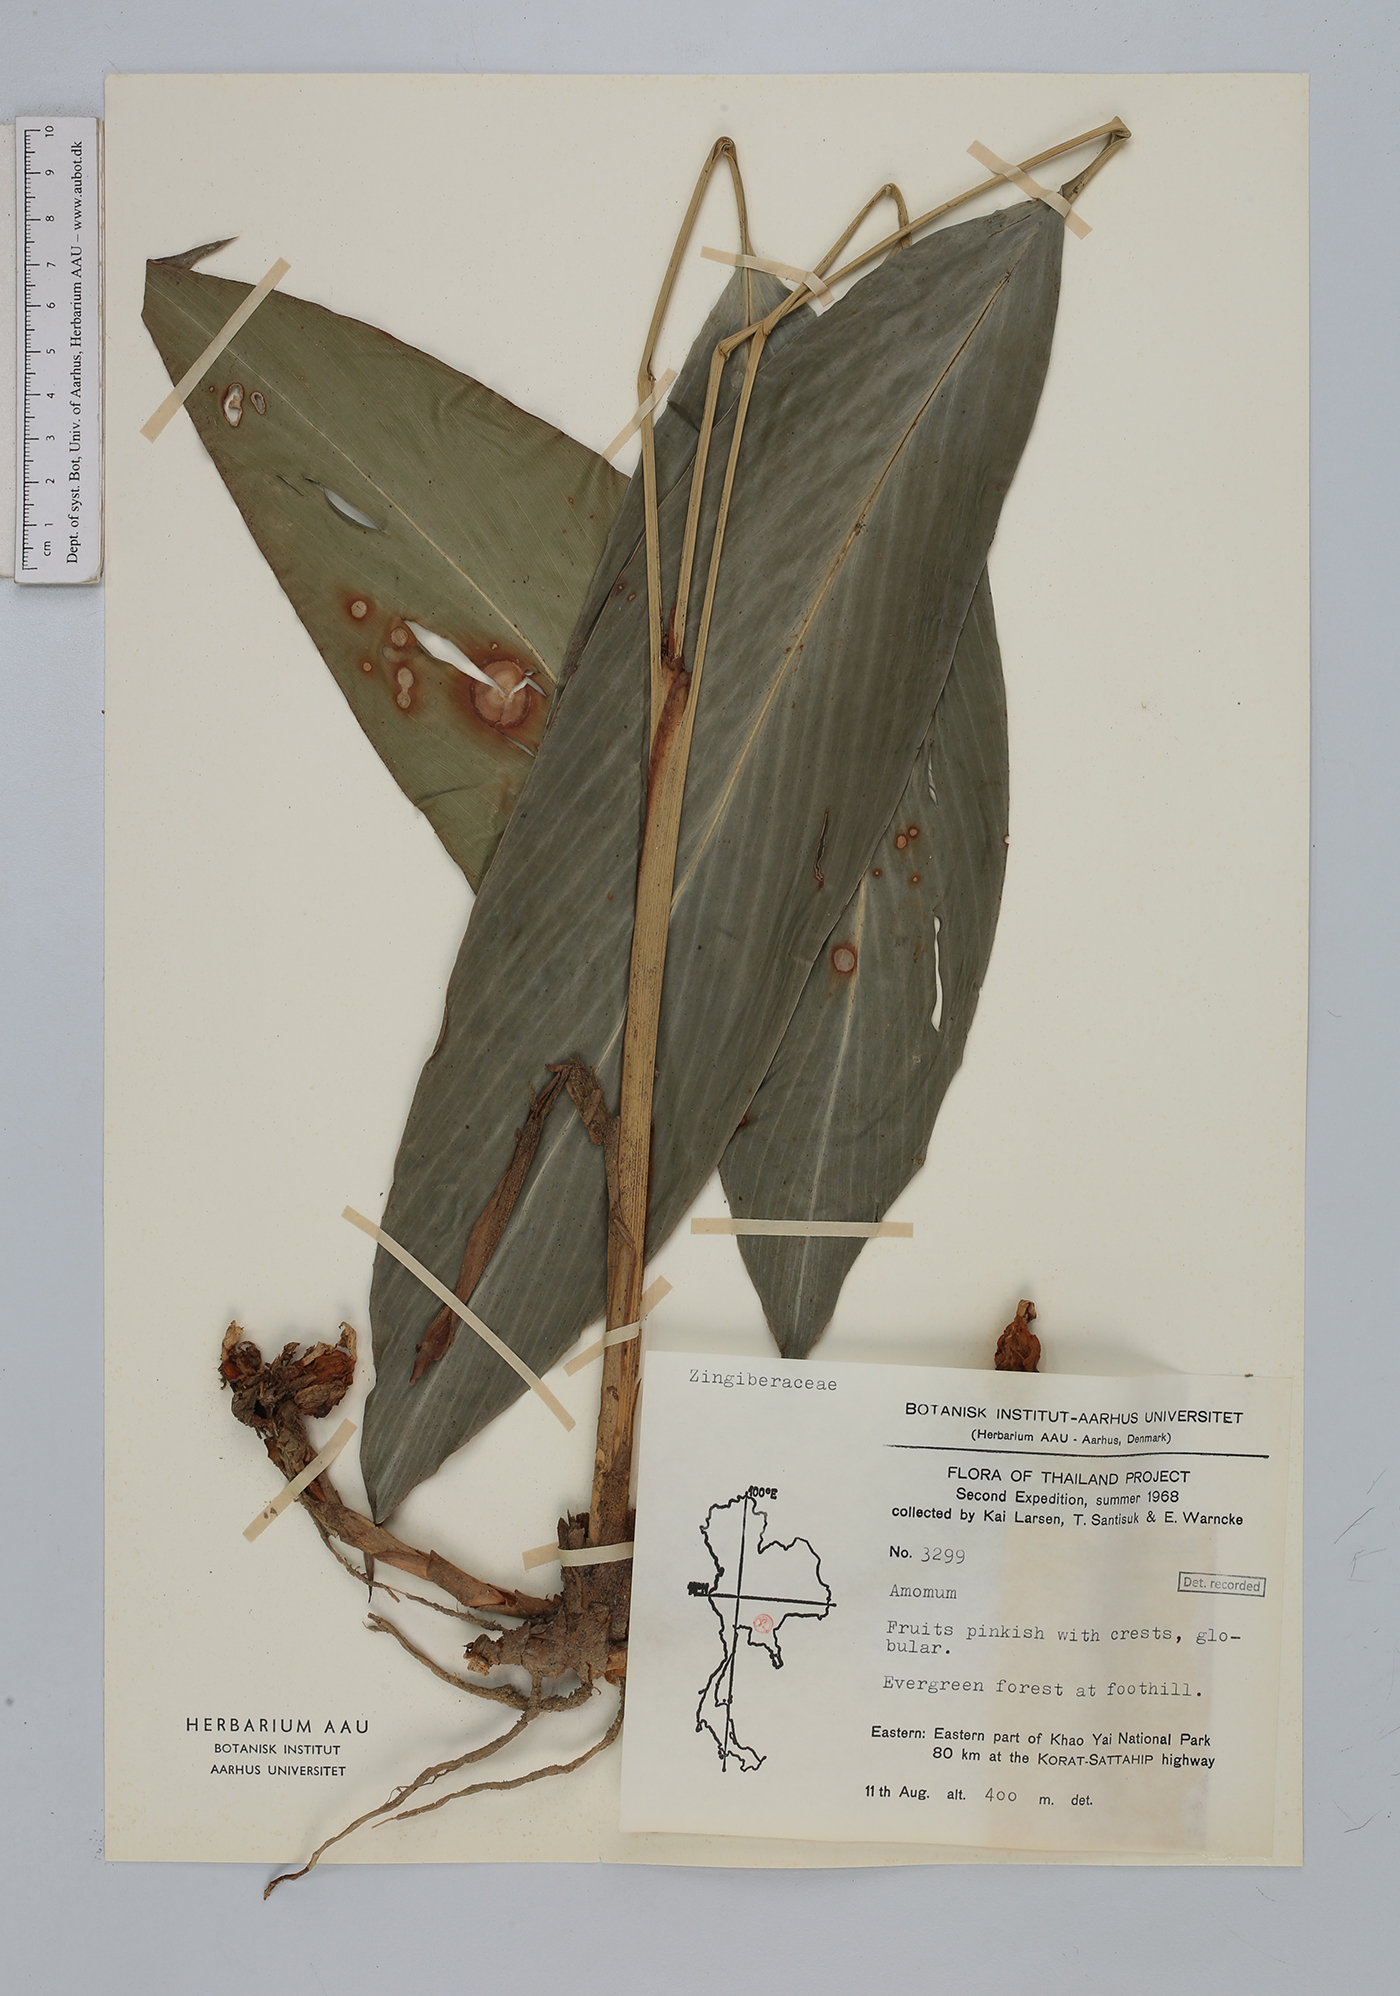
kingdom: Plantae
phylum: Tracheophyta
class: Liliopsida
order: Zingiberales
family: Zingiberaceae
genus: Amomum
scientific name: Amomum
